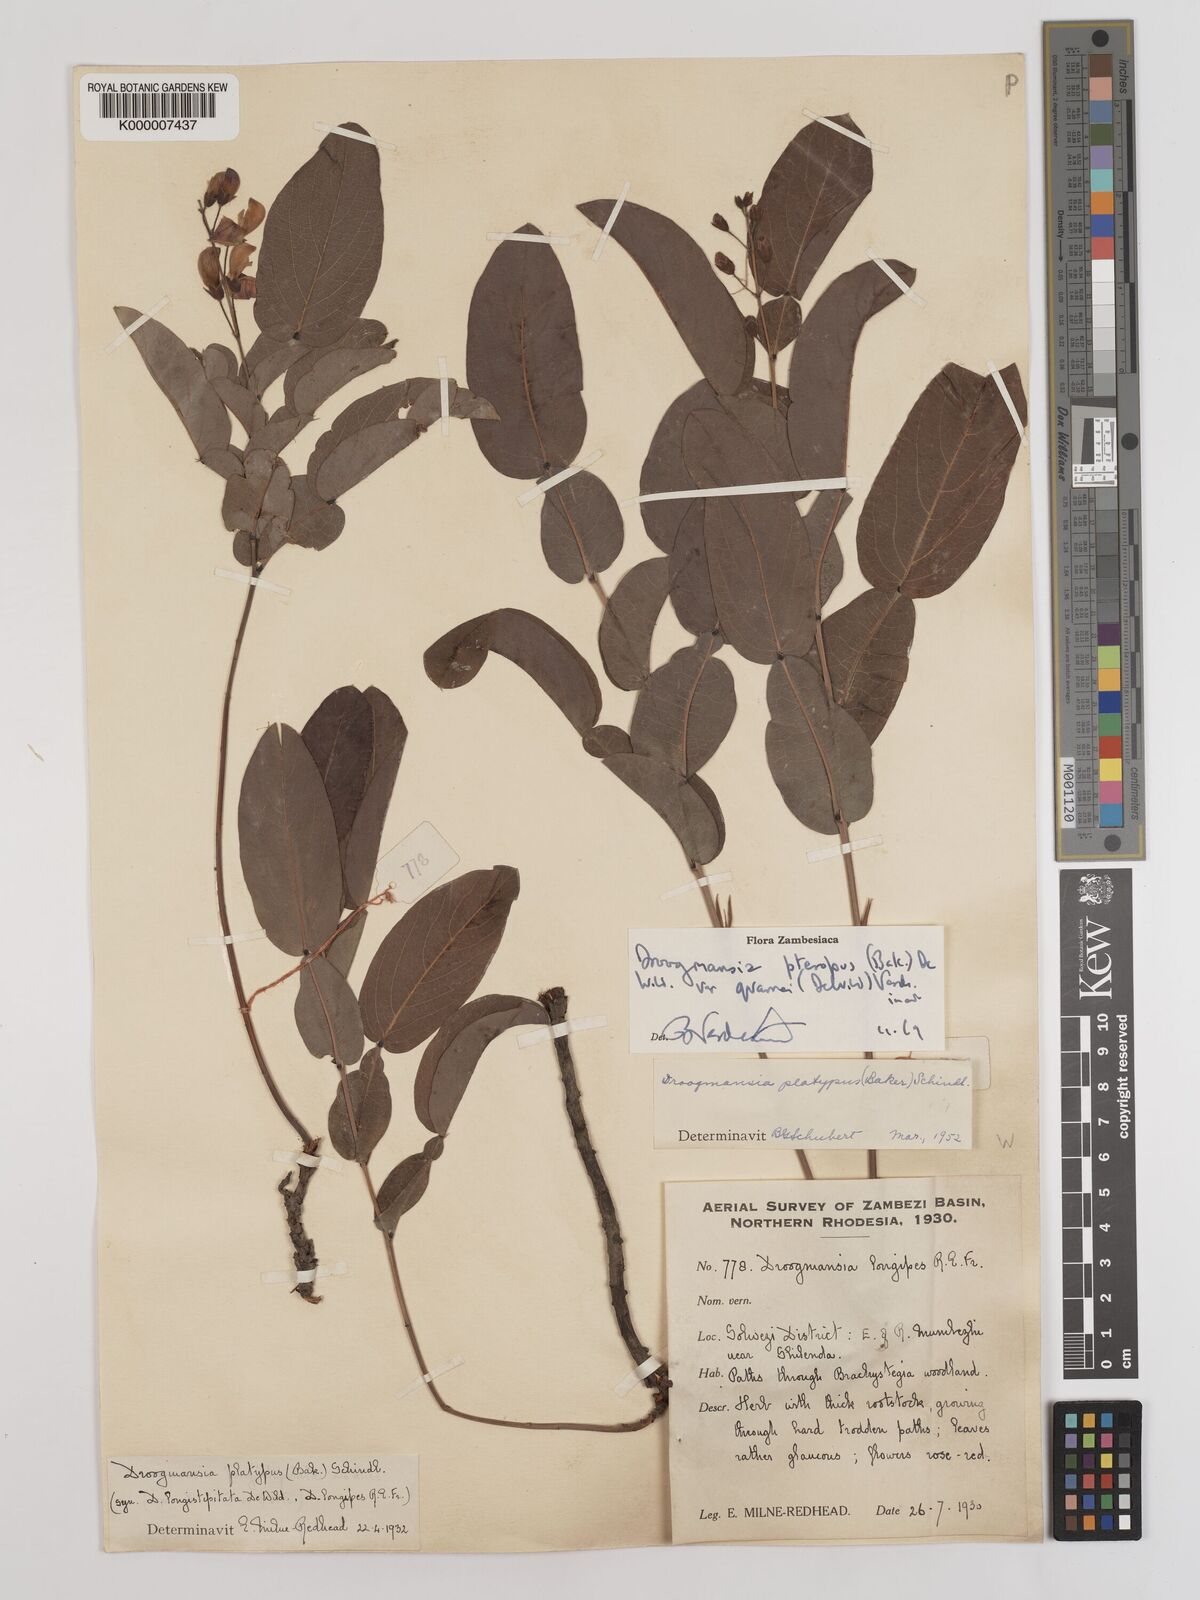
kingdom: Plantae
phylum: Tracheophyta
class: Magnoliopsida
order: Fabales
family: Fabaceae
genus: Droogmansia
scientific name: Droogmansia pteropus
